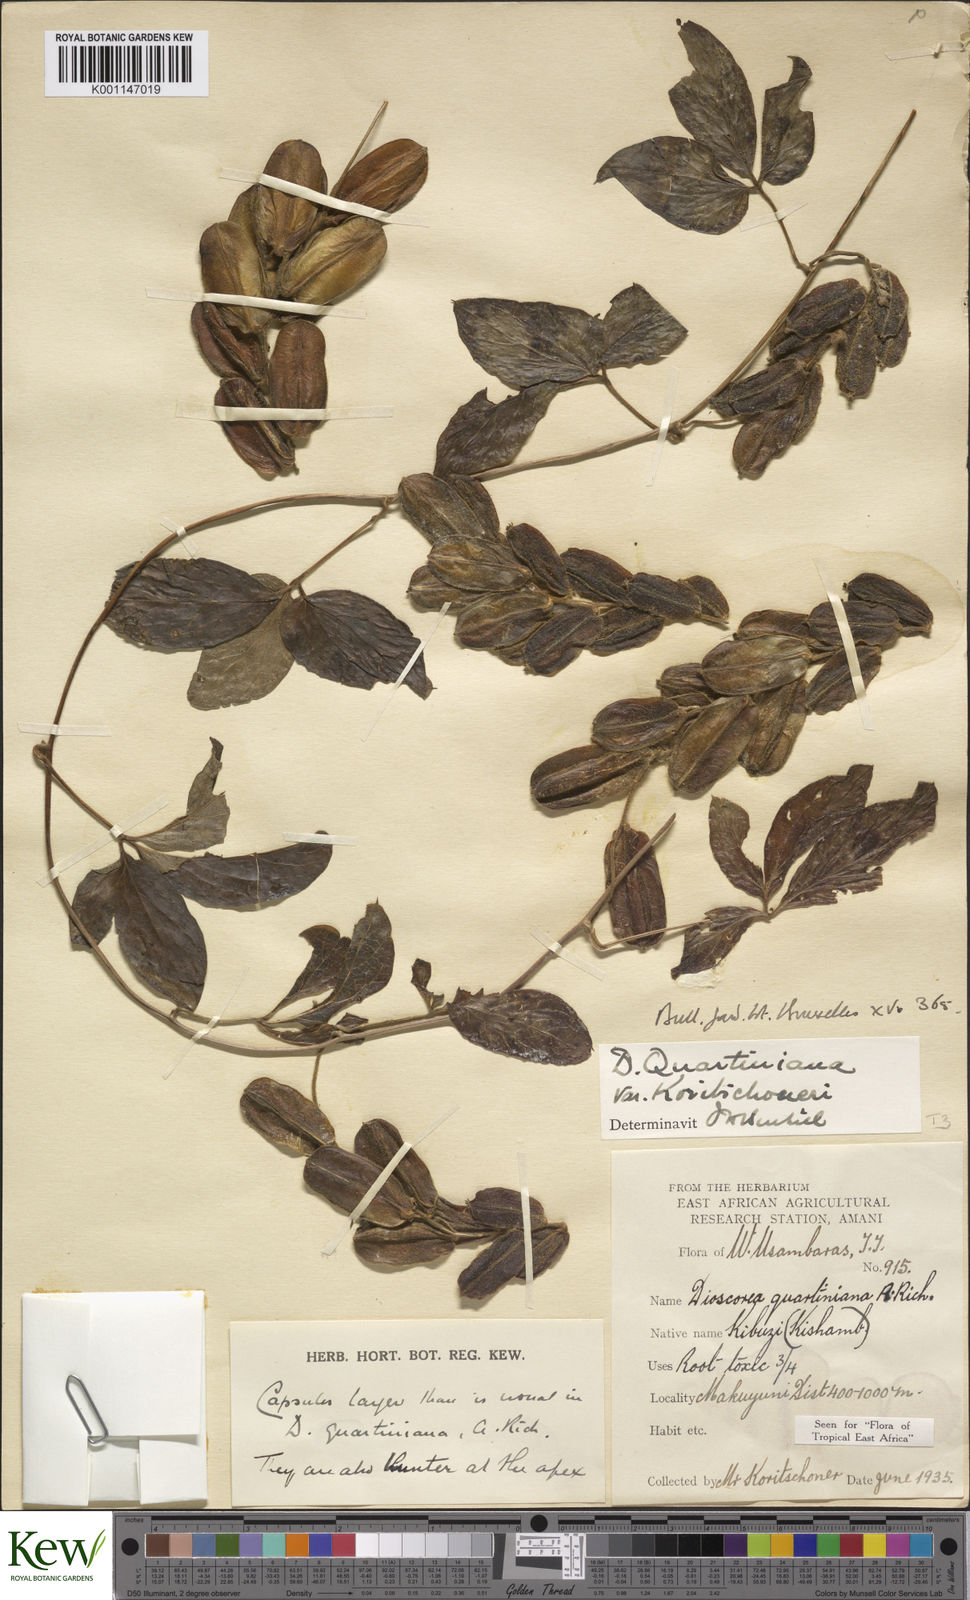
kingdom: Plantae
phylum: Tracheophyta
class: Liliopsida
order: Dioscoreales
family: Dioscoreaceae
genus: Dioscorea
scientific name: Dioscorea quartiniana
